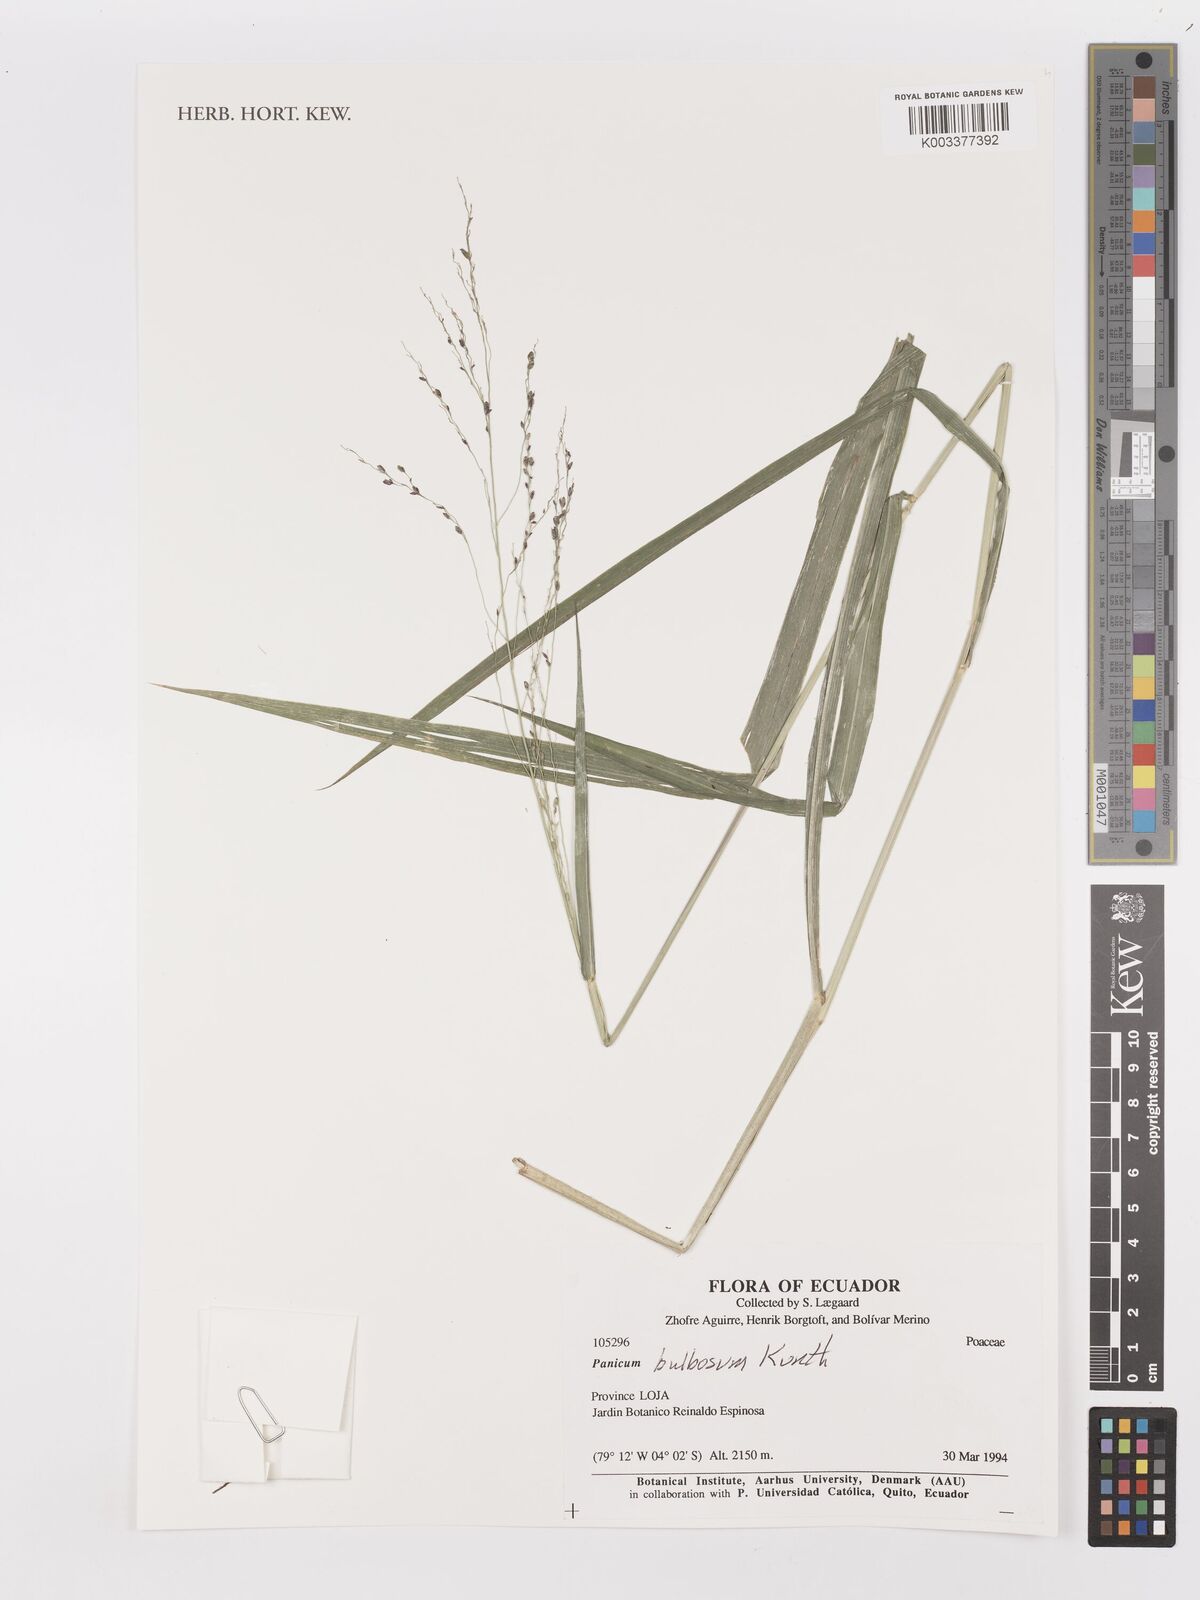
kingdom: Plantae
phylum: Tracheophyta
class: Liliopsida
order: Poales
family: Poaceae
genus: Zuloagaea
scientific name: Zuloagaea bulbosa
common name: Canyon panic grass
